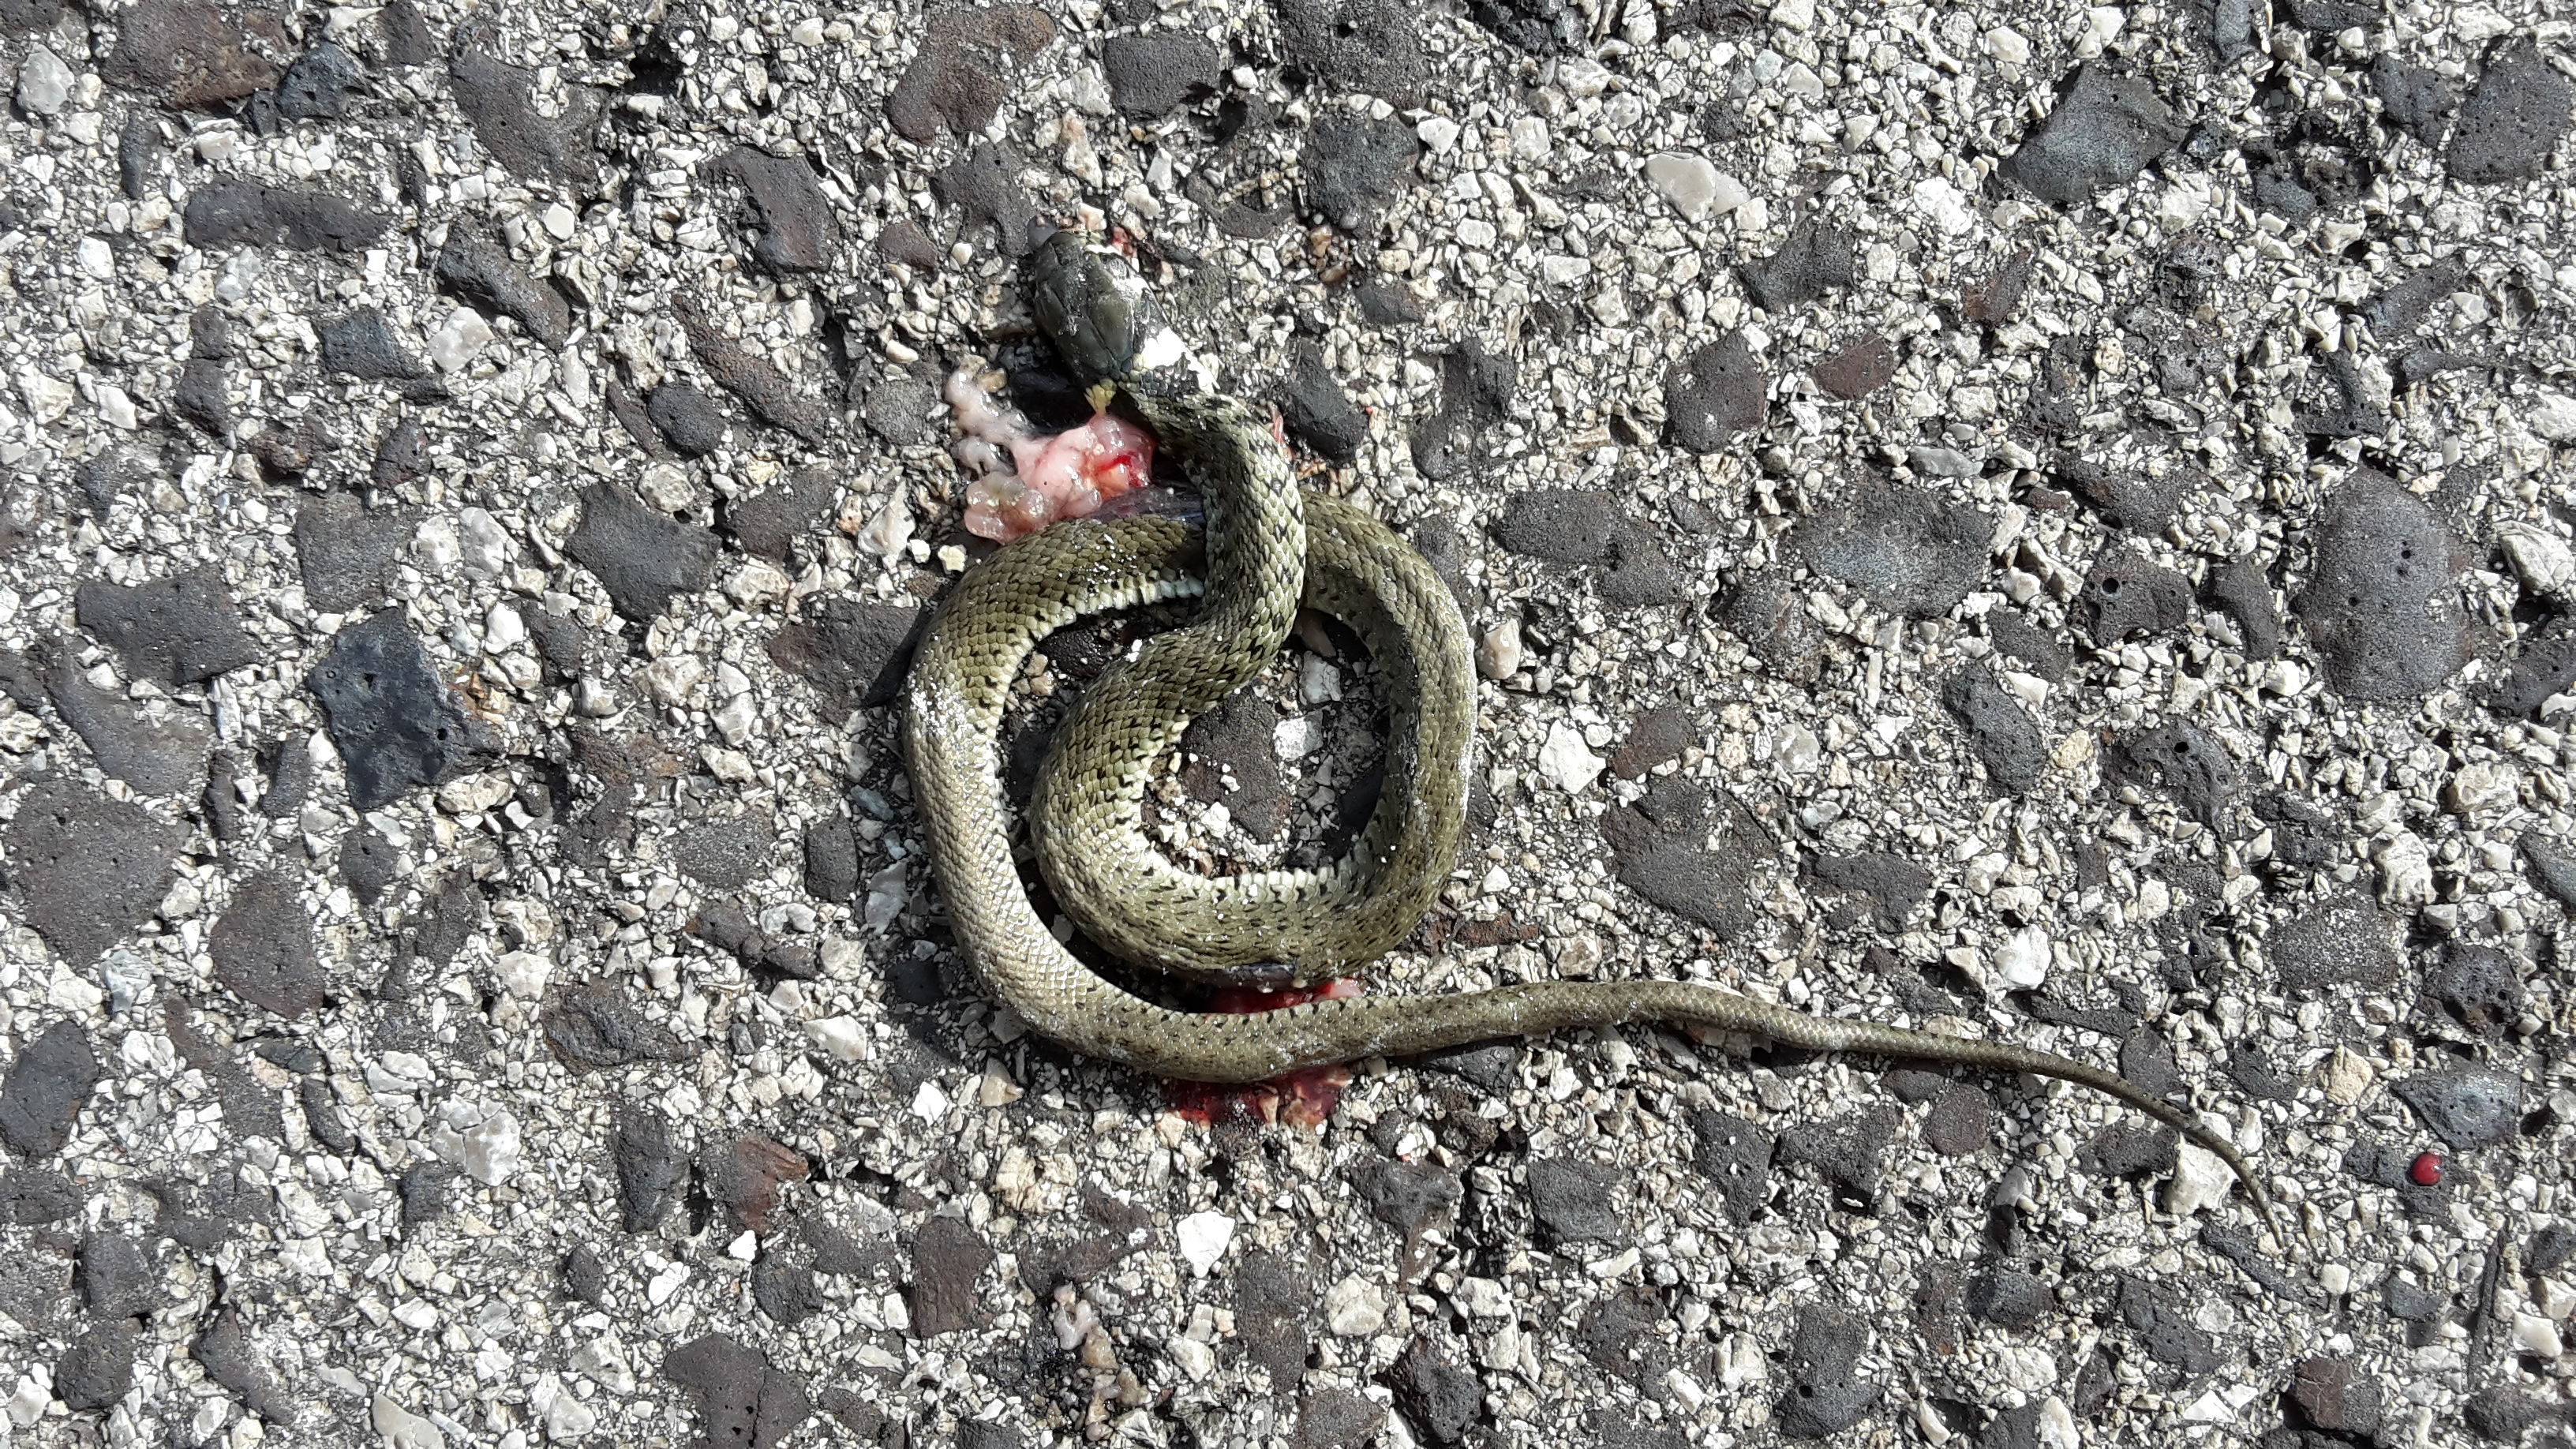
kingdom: Animalia
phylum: Chordata
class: Squamata
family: Colubridae
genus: Natrix
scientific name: Natrix natrix
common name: Grass snake
